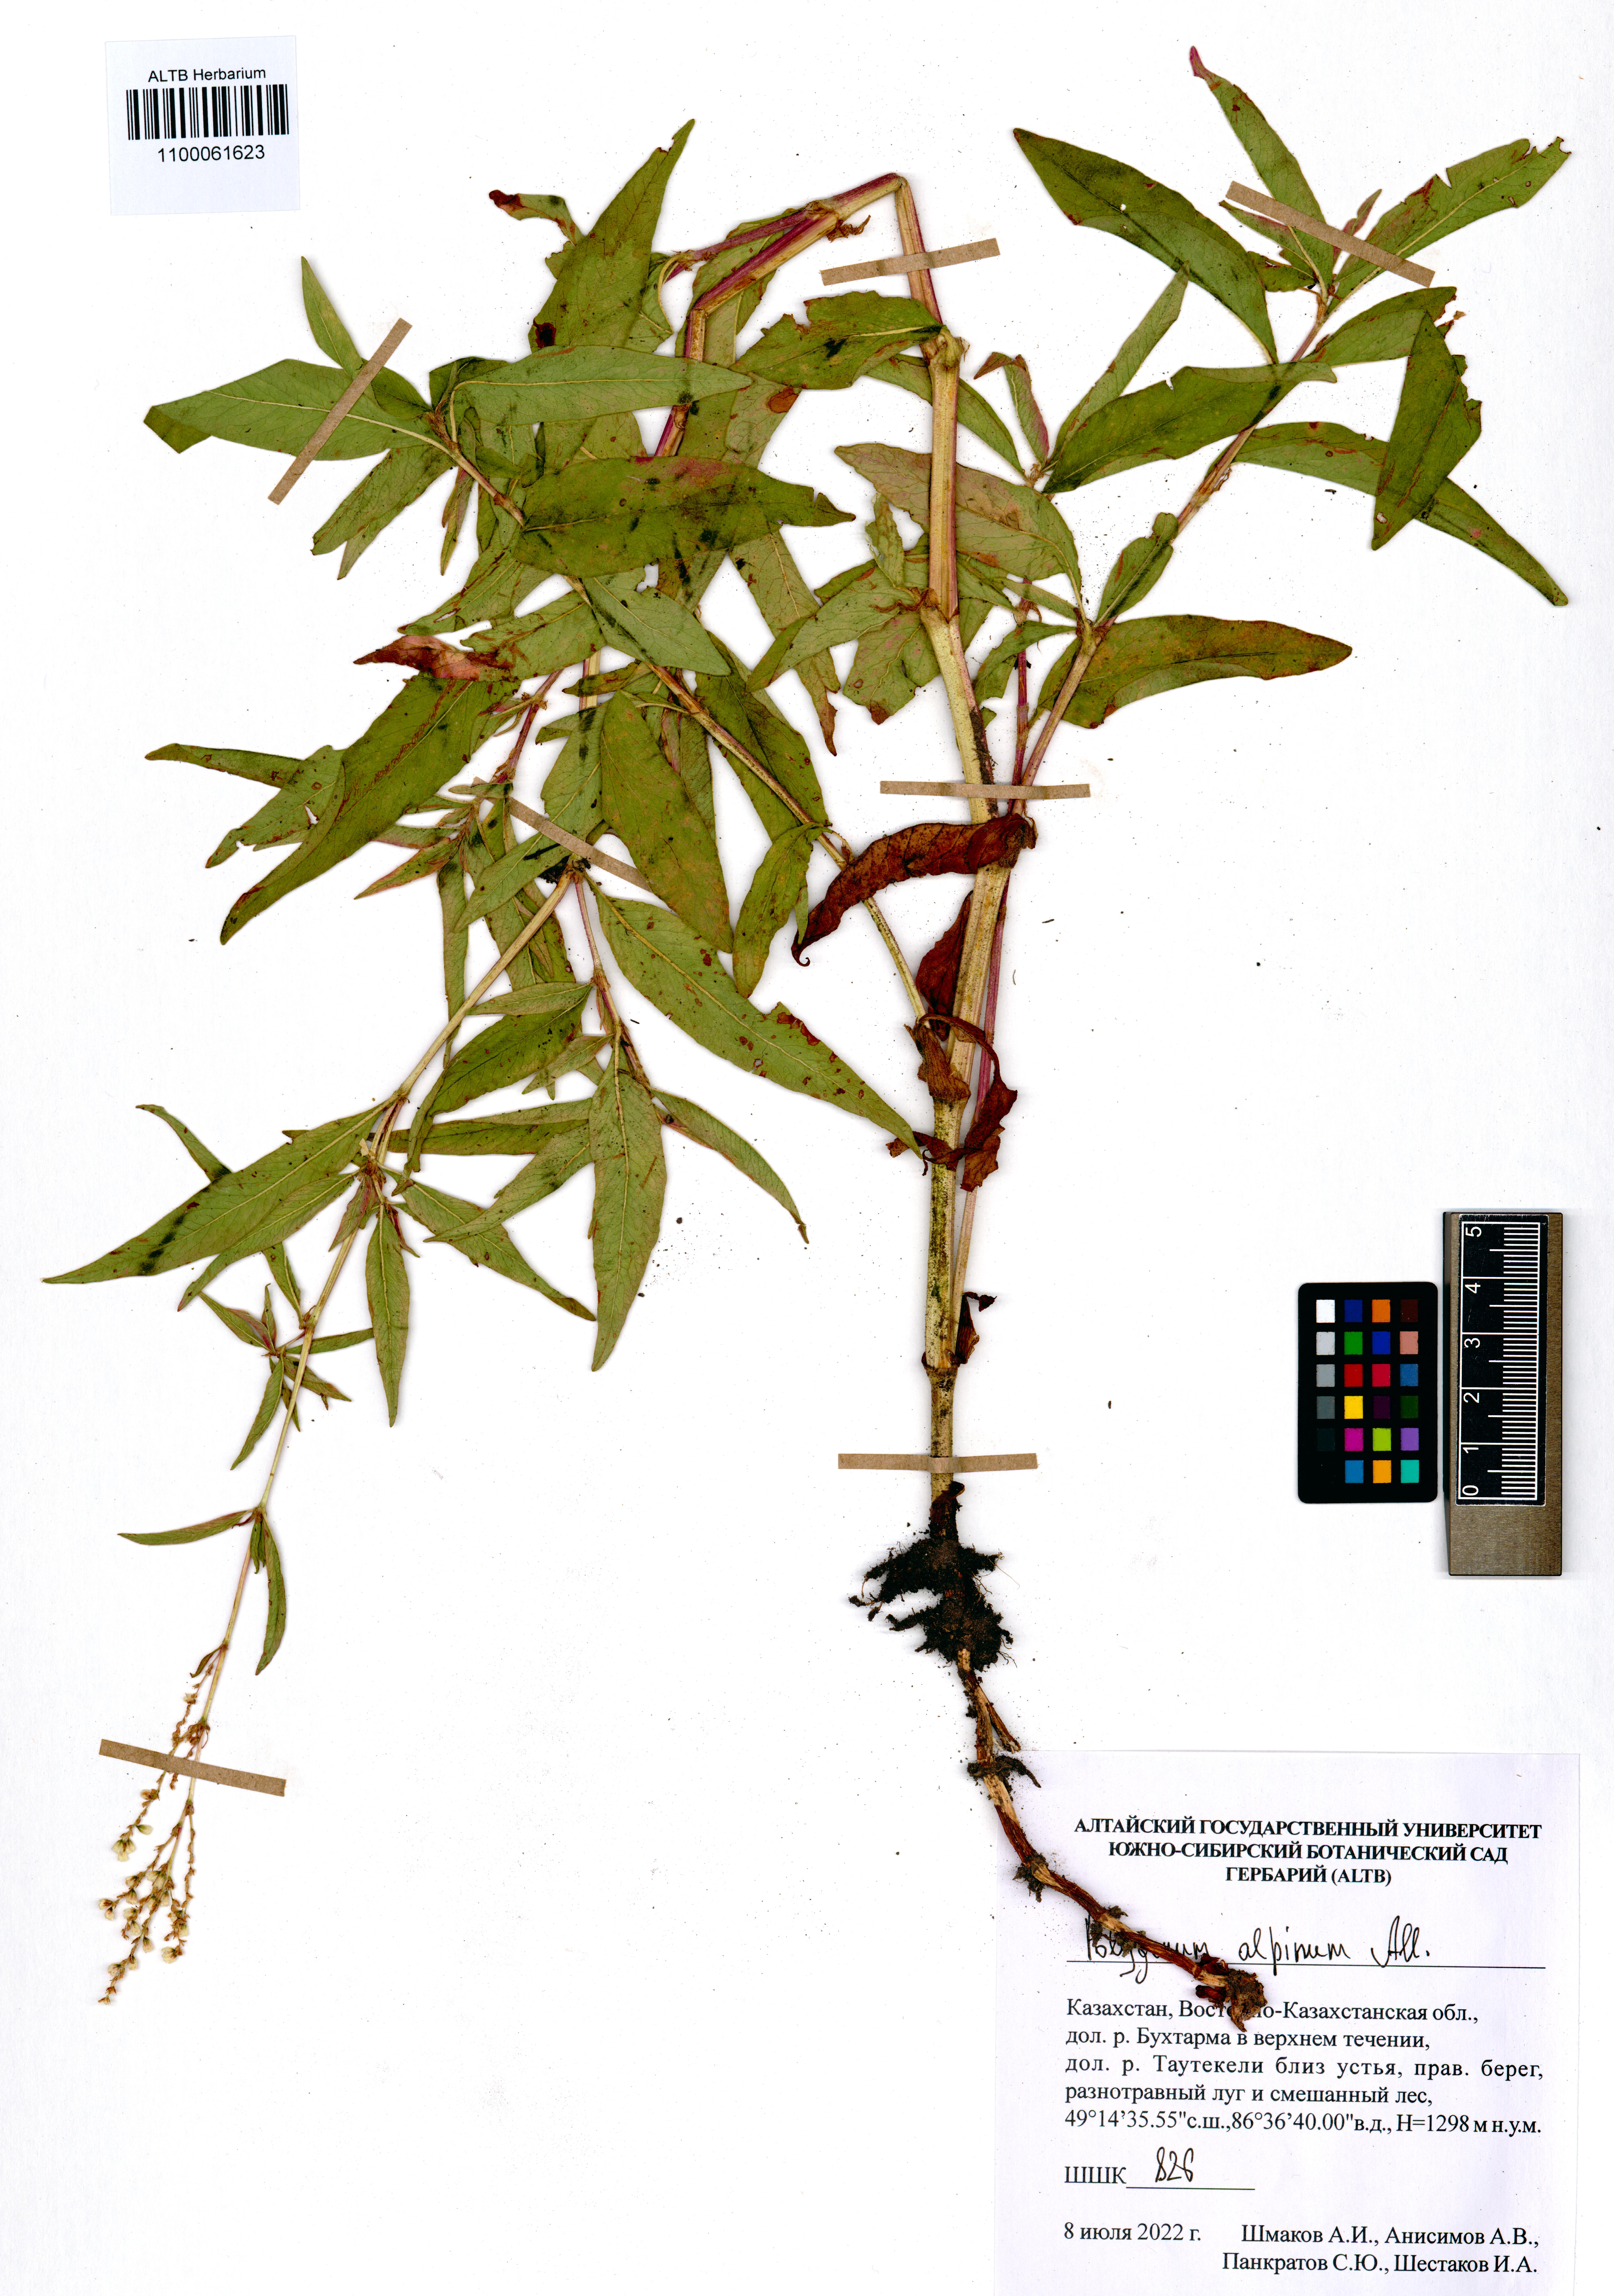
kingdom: Plantae
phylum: Tracheophyta
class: Magnoliopsida
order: Caryophyllales
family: Polygonaceae
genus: Koenigia
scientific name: Koenigia alpina
